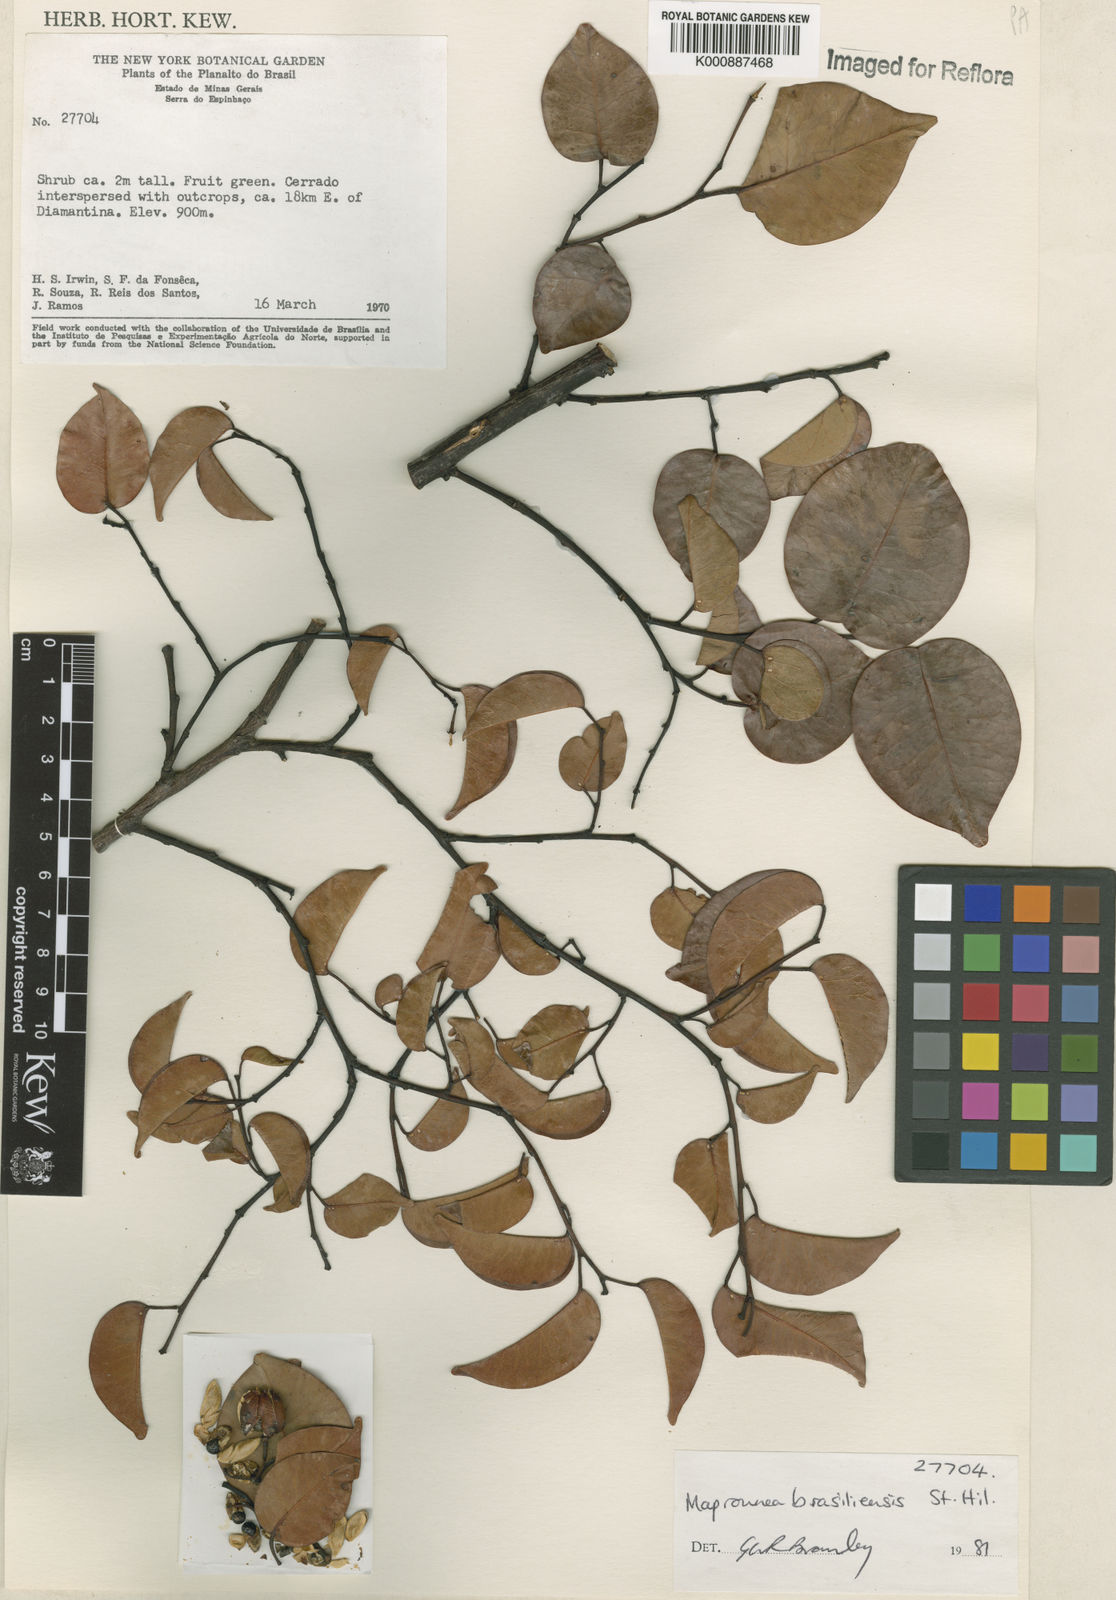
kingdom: Plantae
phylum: Tracheophyta
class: Magnoliopsida
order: Malpighiales
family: Euphorbiaceae
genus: Maprounea
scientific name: Maprounea brasiliensis
